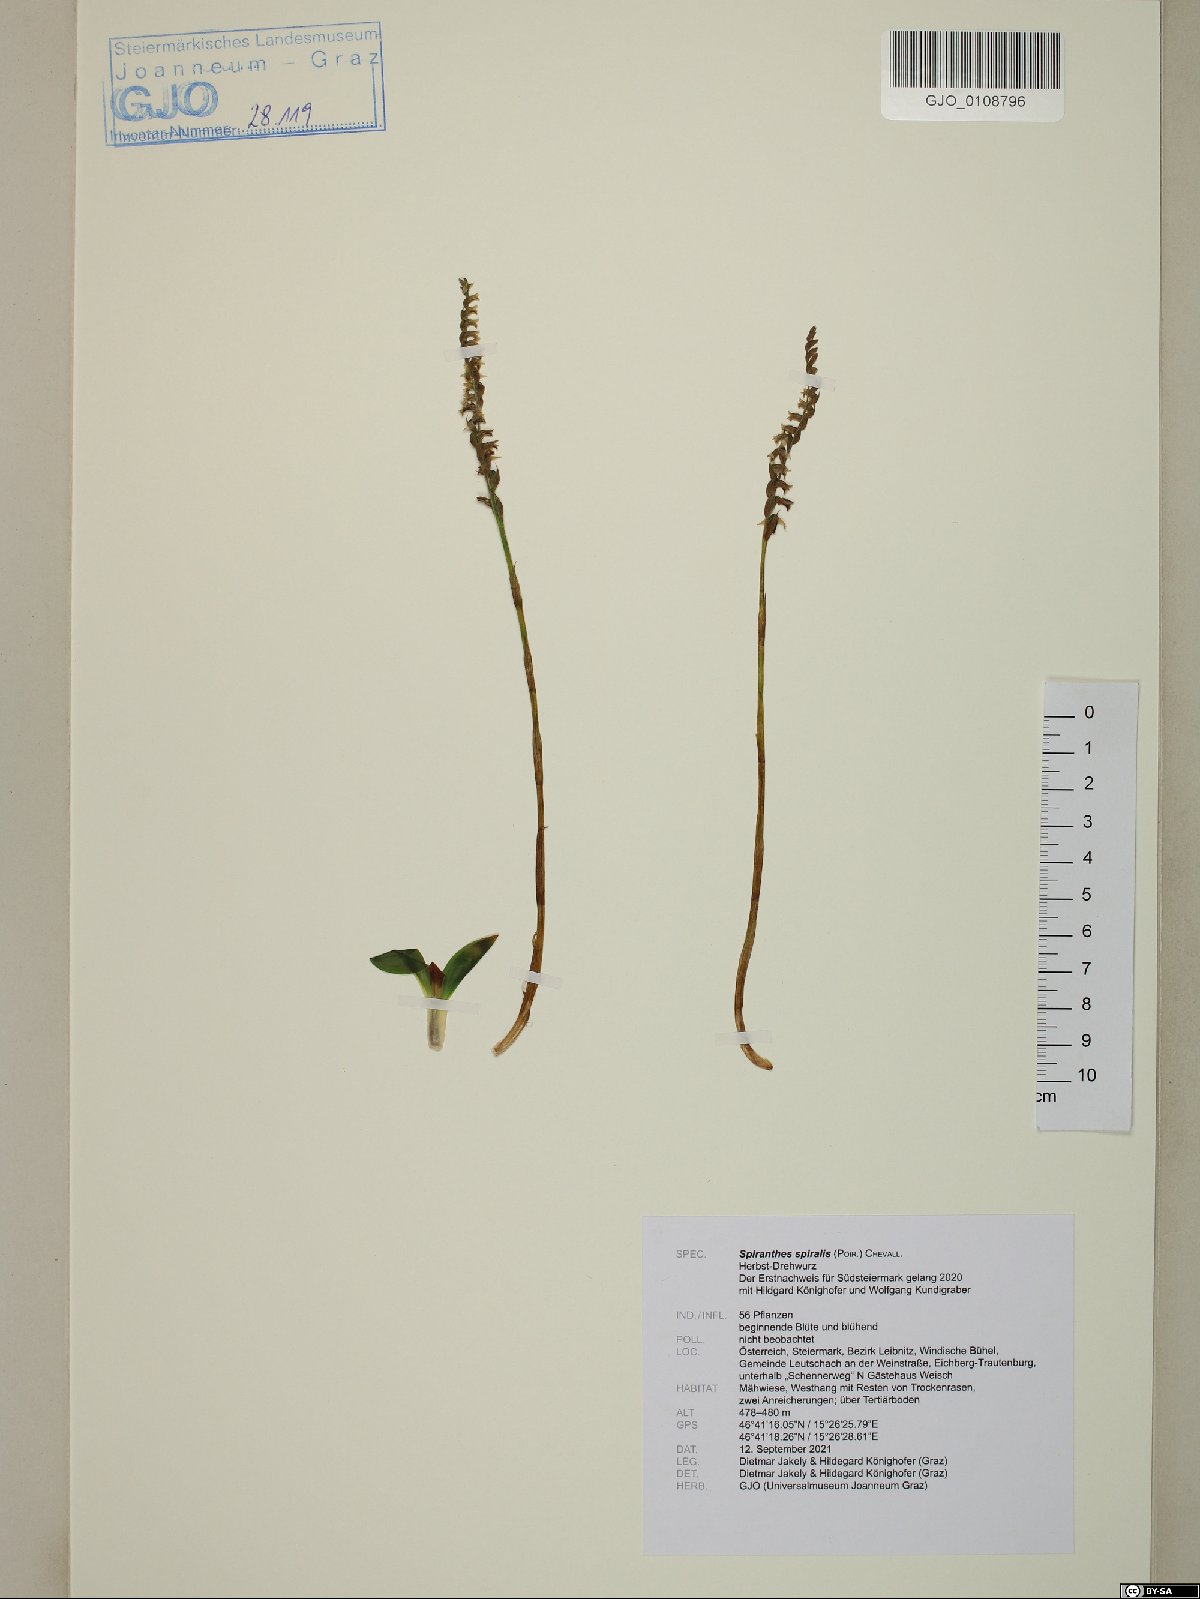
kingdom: Plantae
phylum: Tracheophyta
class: Liliopsida
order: Asparagales
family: Orchidaceae
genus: Spiranthes
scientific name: Spiranthes spiralis
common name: Autumn lady's-tresses
